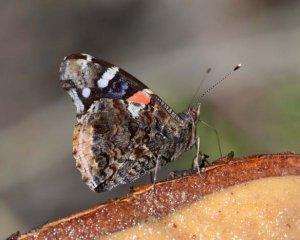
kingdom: Animalia
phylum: Arthropoda
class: Insecta
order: Lepidoptera
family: Nymphalidae
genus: Vanessa
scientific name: Vanessa atalanta
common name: Red Admiral
